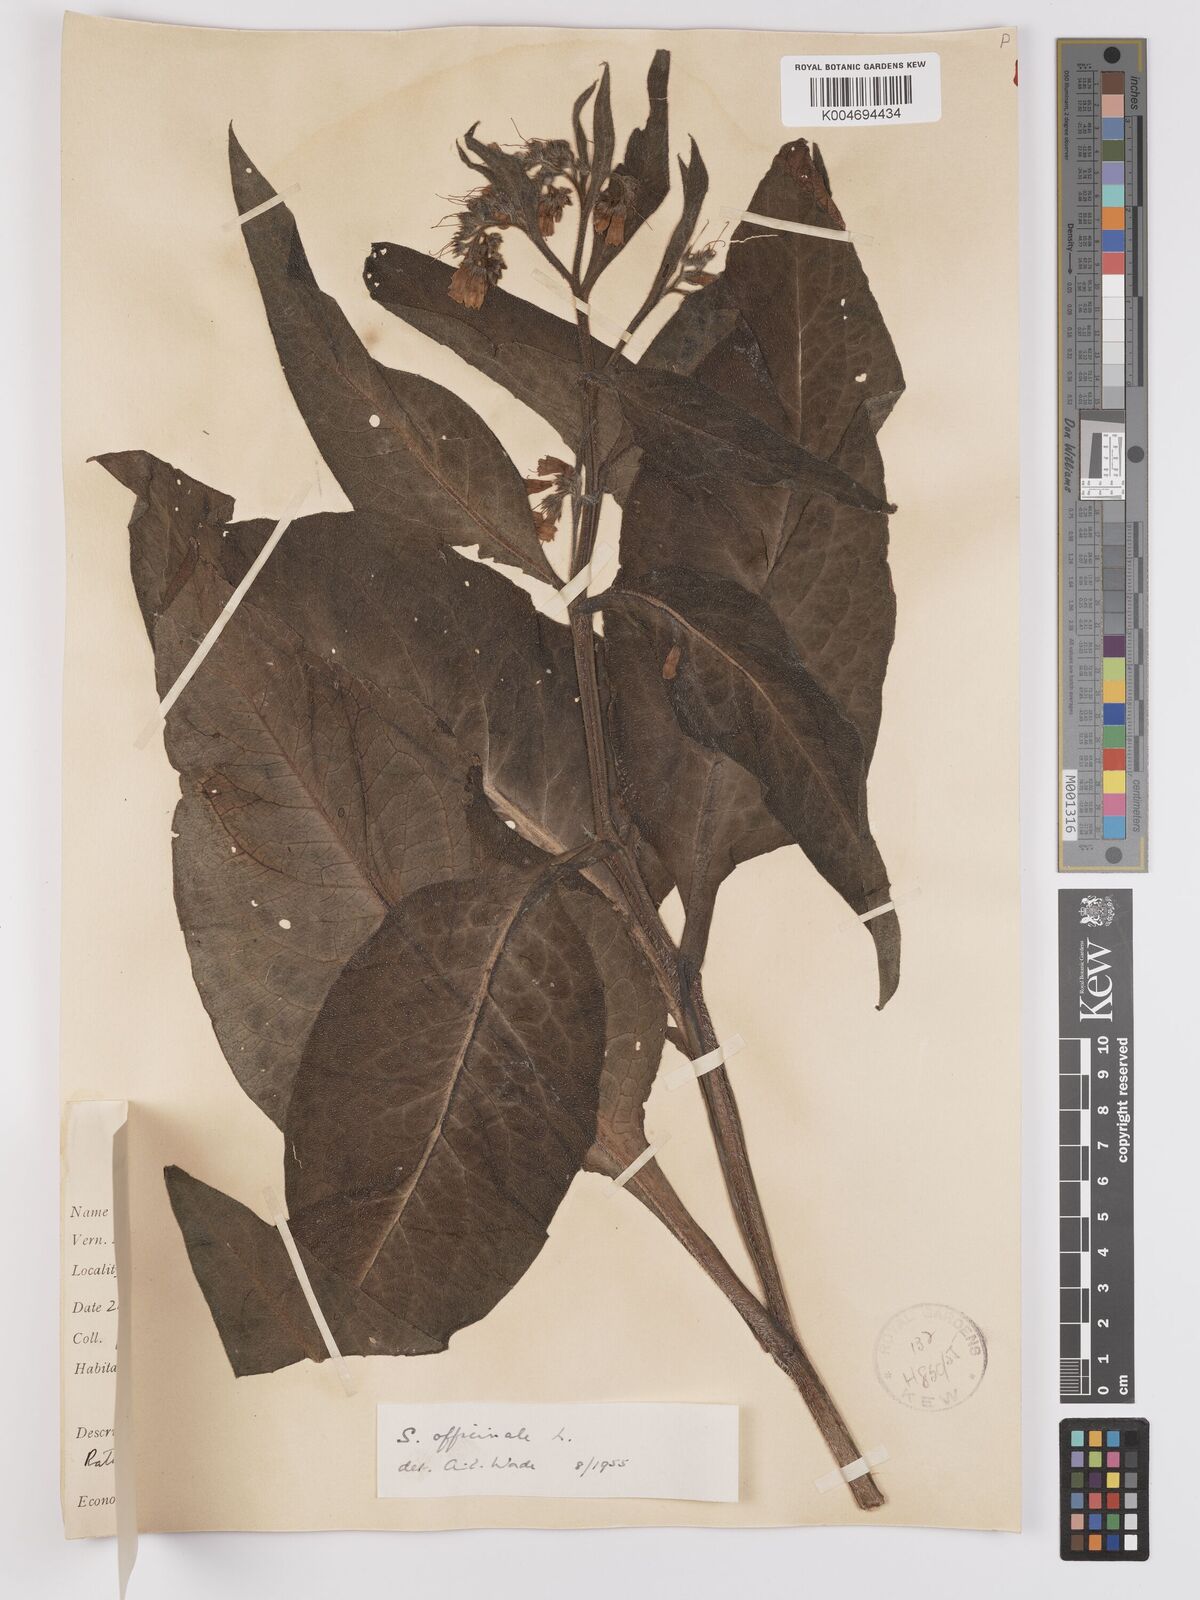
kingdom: Plantae
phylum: Tracheophyta
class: Magnoliopsida
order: Boraginales
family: Boraginaceae
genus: Symphytum
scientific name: Symphytum officinale
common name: Common comfrey
